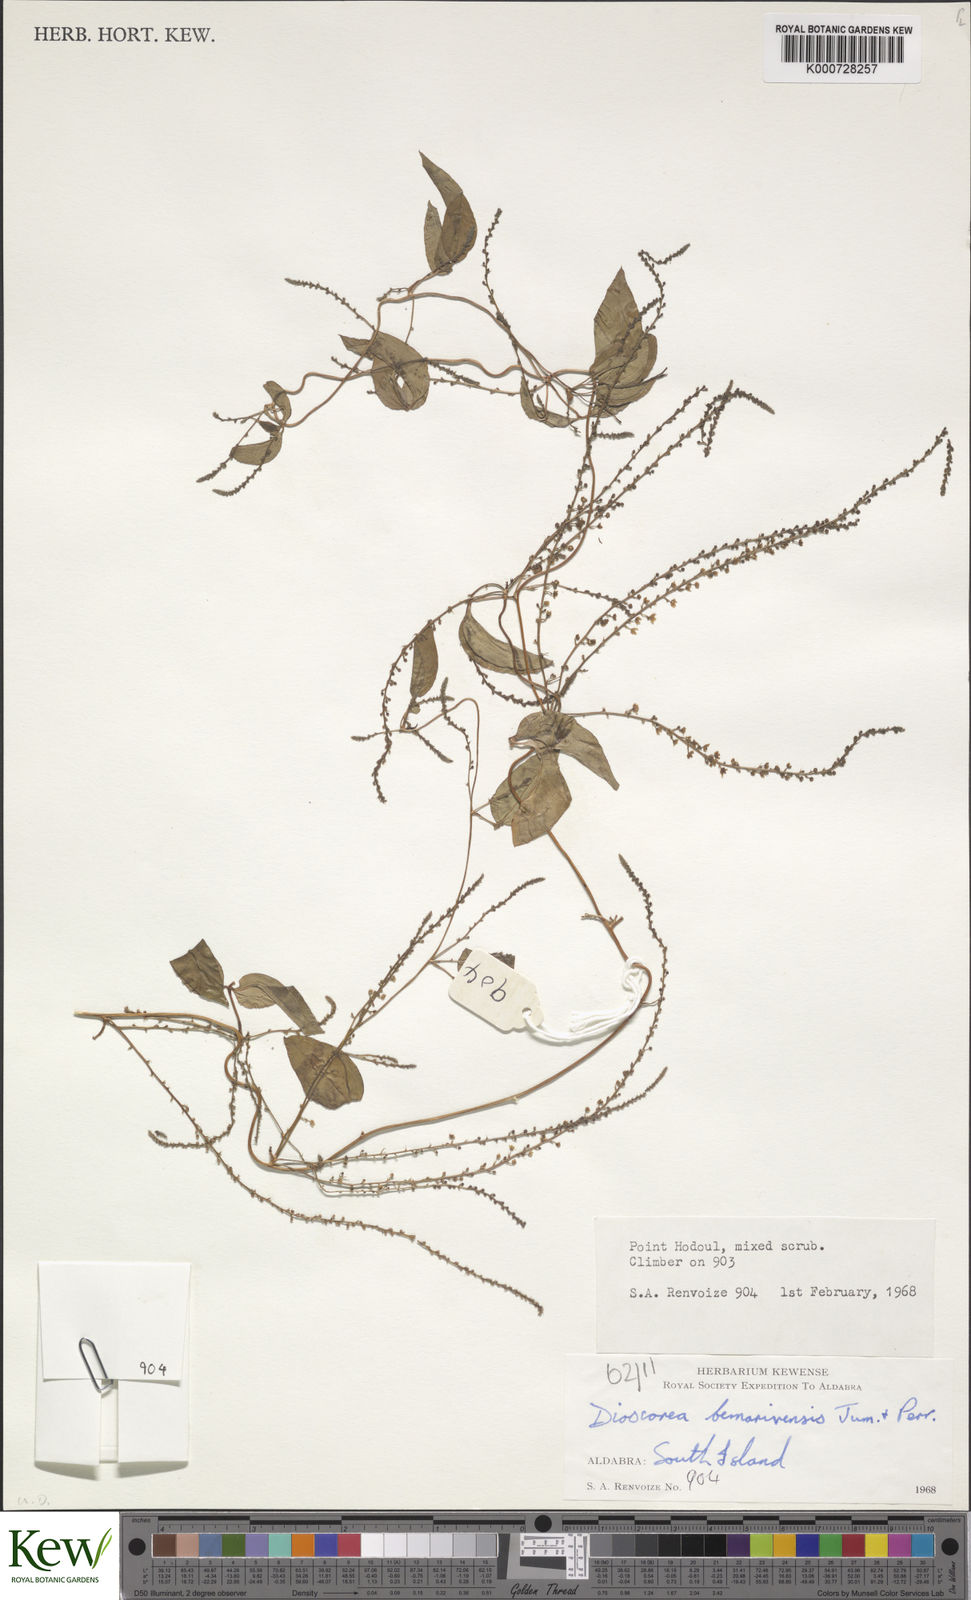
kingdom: Plantae
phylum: Tracheophyta
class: Liliopsida
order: Dioscoreales
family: Dioscoreaceae
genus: Dioscorea
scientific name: Dioscorea bemarivensis
